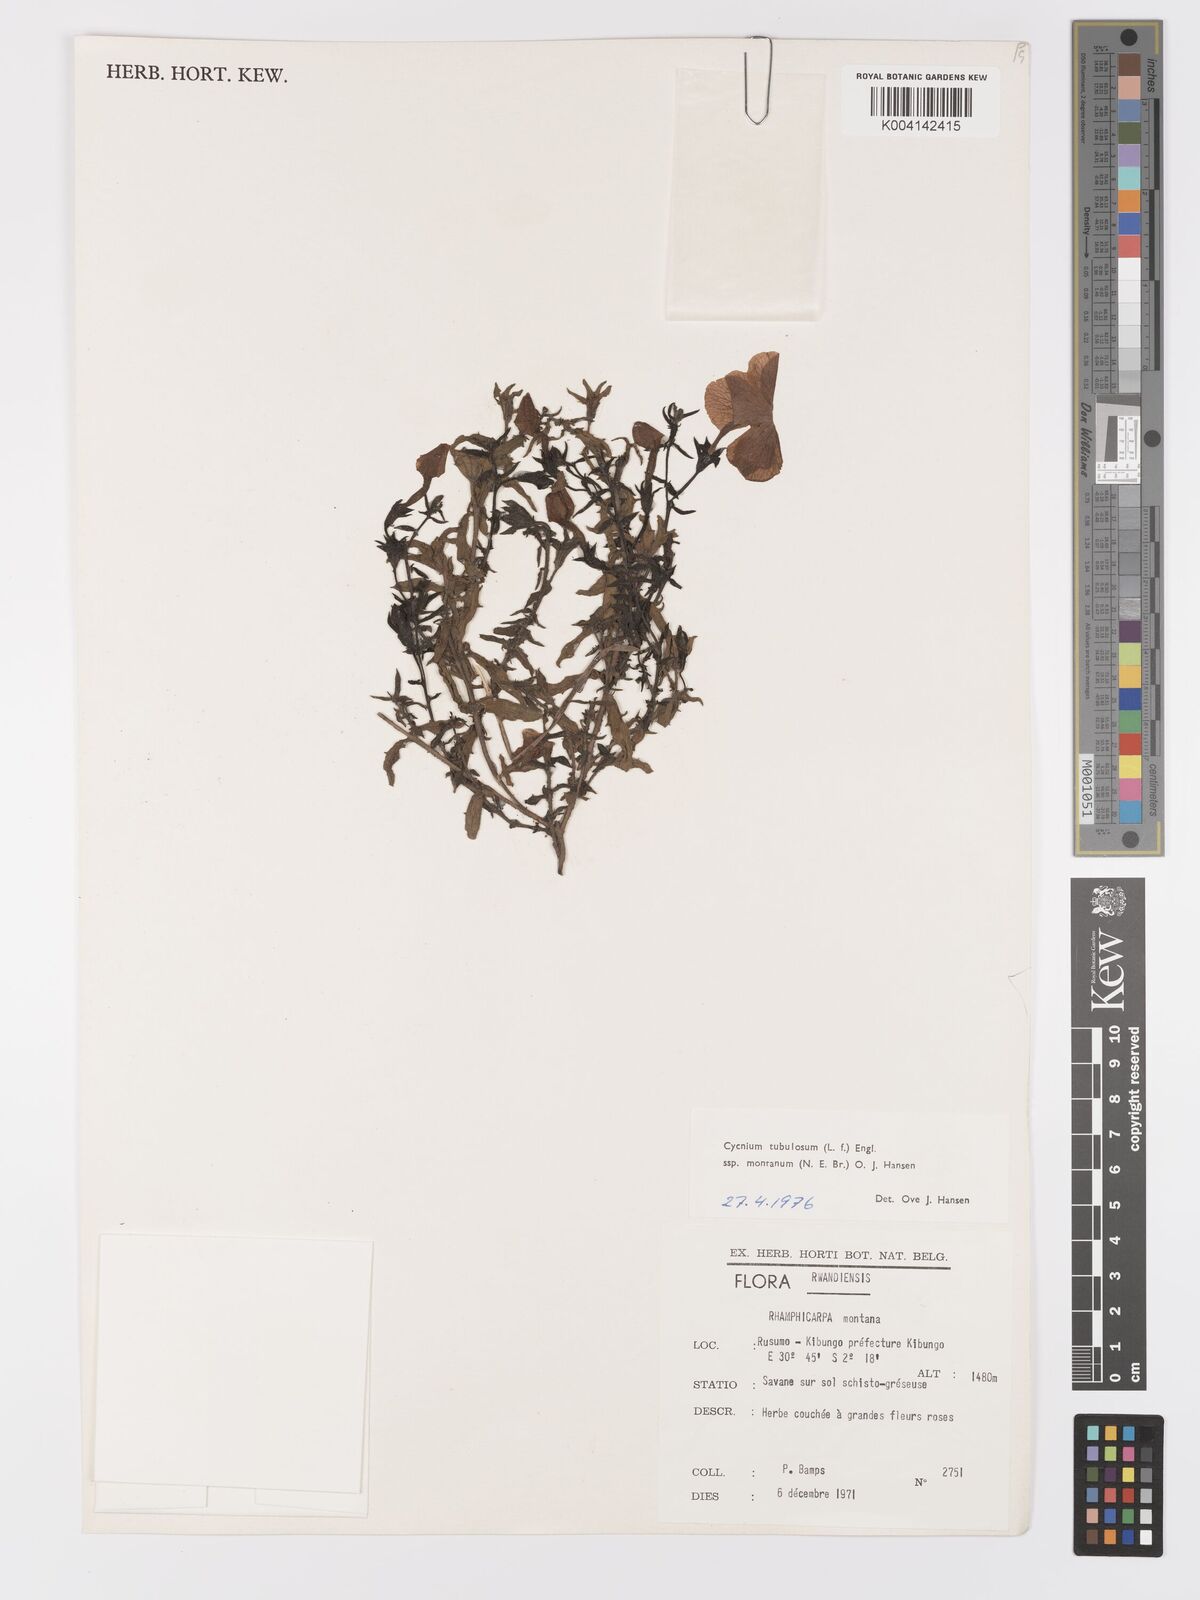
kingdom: Plantae
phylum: Tracheophyta
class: Magnoliopsida
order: Lamiales
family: Orobanchaceae
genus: Cycnium
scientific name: Cycnium tubulosum
